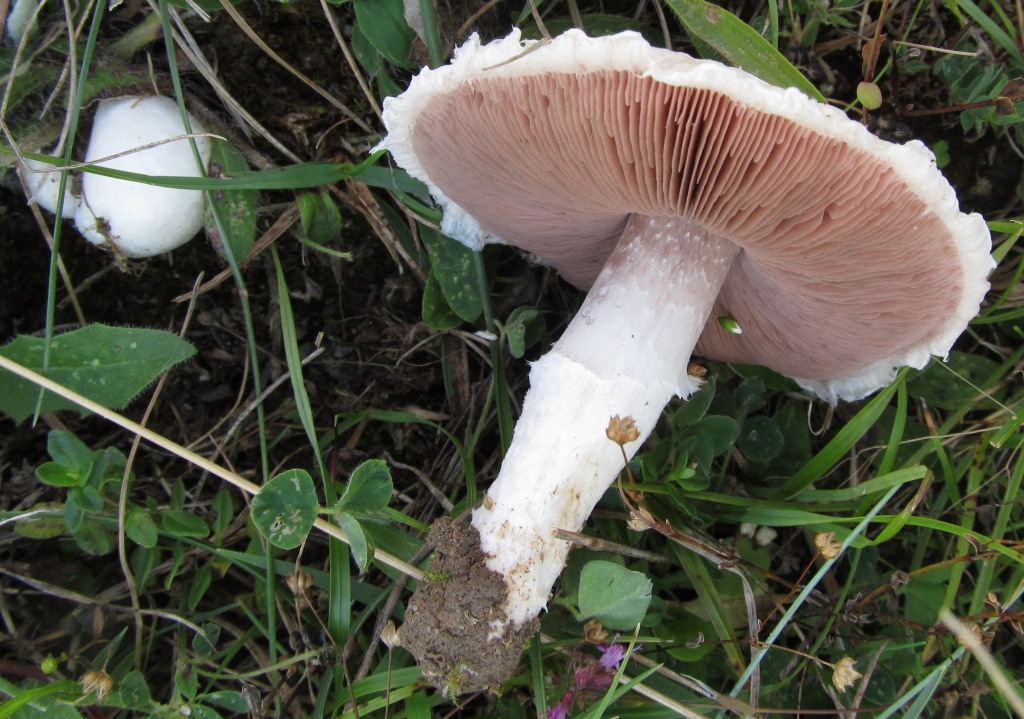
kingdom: Fungi
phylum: Basidiomycota
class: Agaricomycetes
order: Agaricales
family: Agaricaceae
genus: Agaricus
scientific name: Agaricus campestris
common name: mark-champignon
